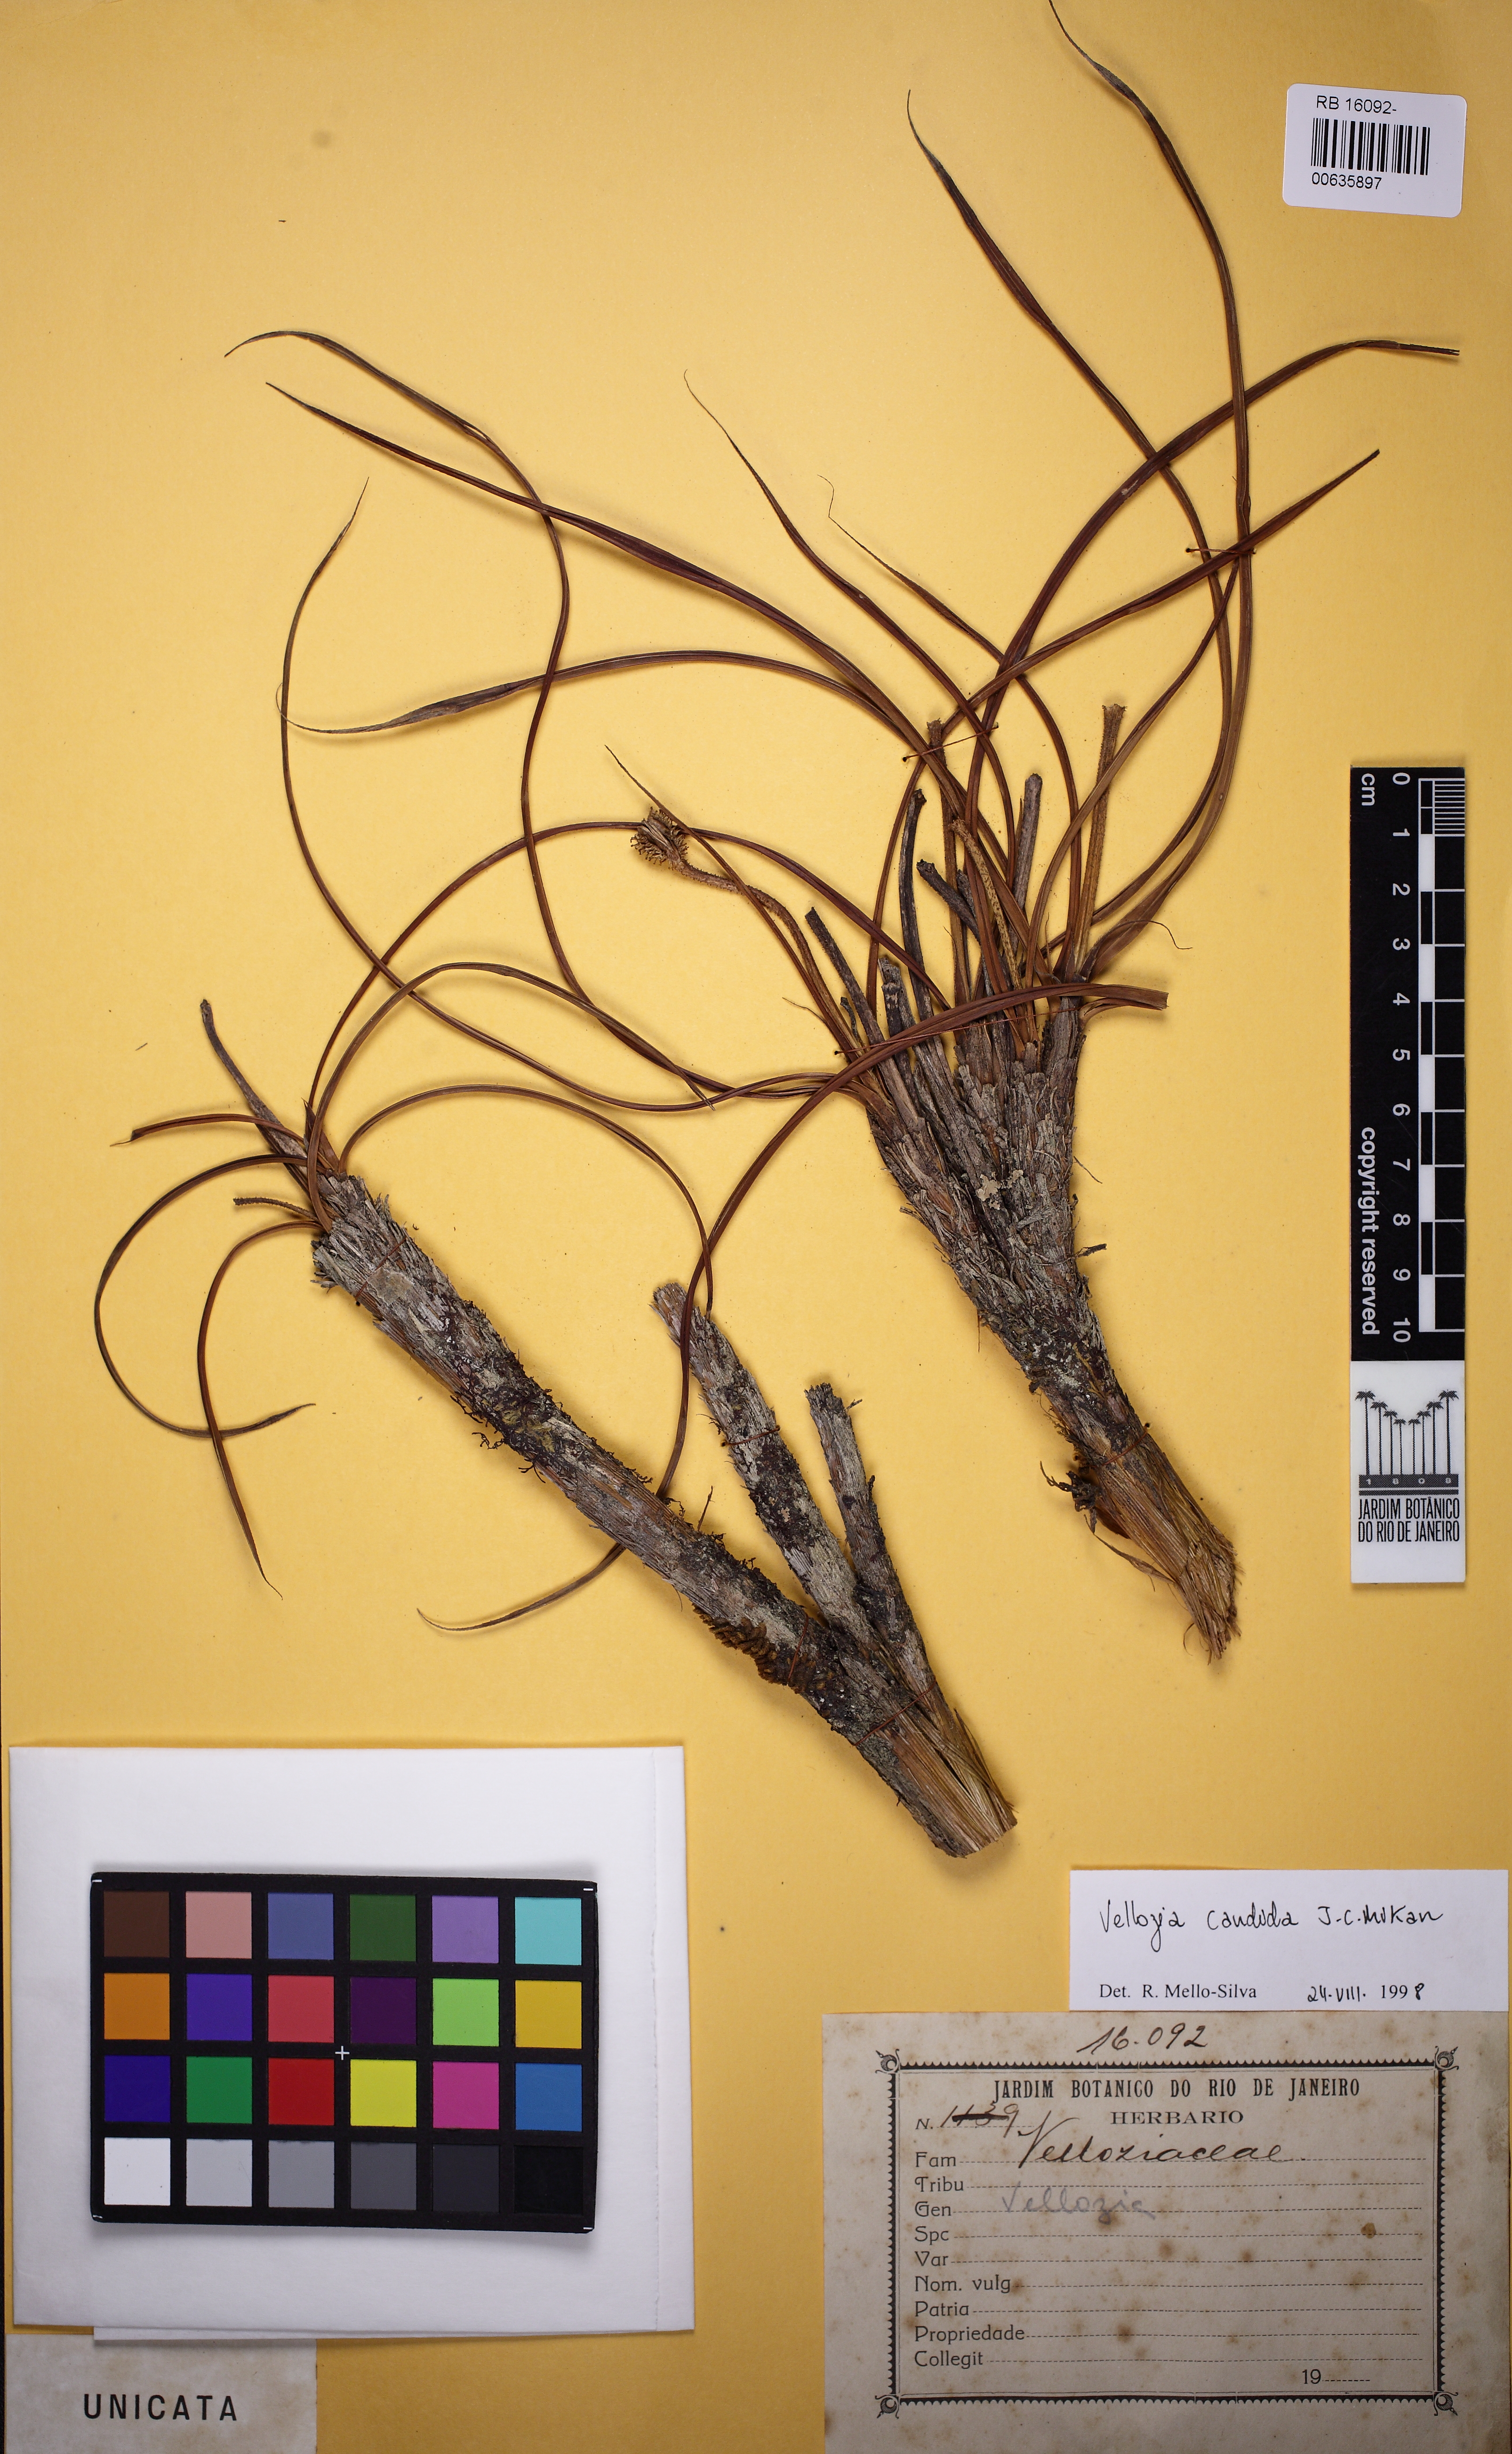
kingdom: Plantae
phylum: Tracheophyta
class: Liliopsida
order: Pandanales
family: Velloziaceae
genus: Vellozia
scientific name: Vellozia candida
